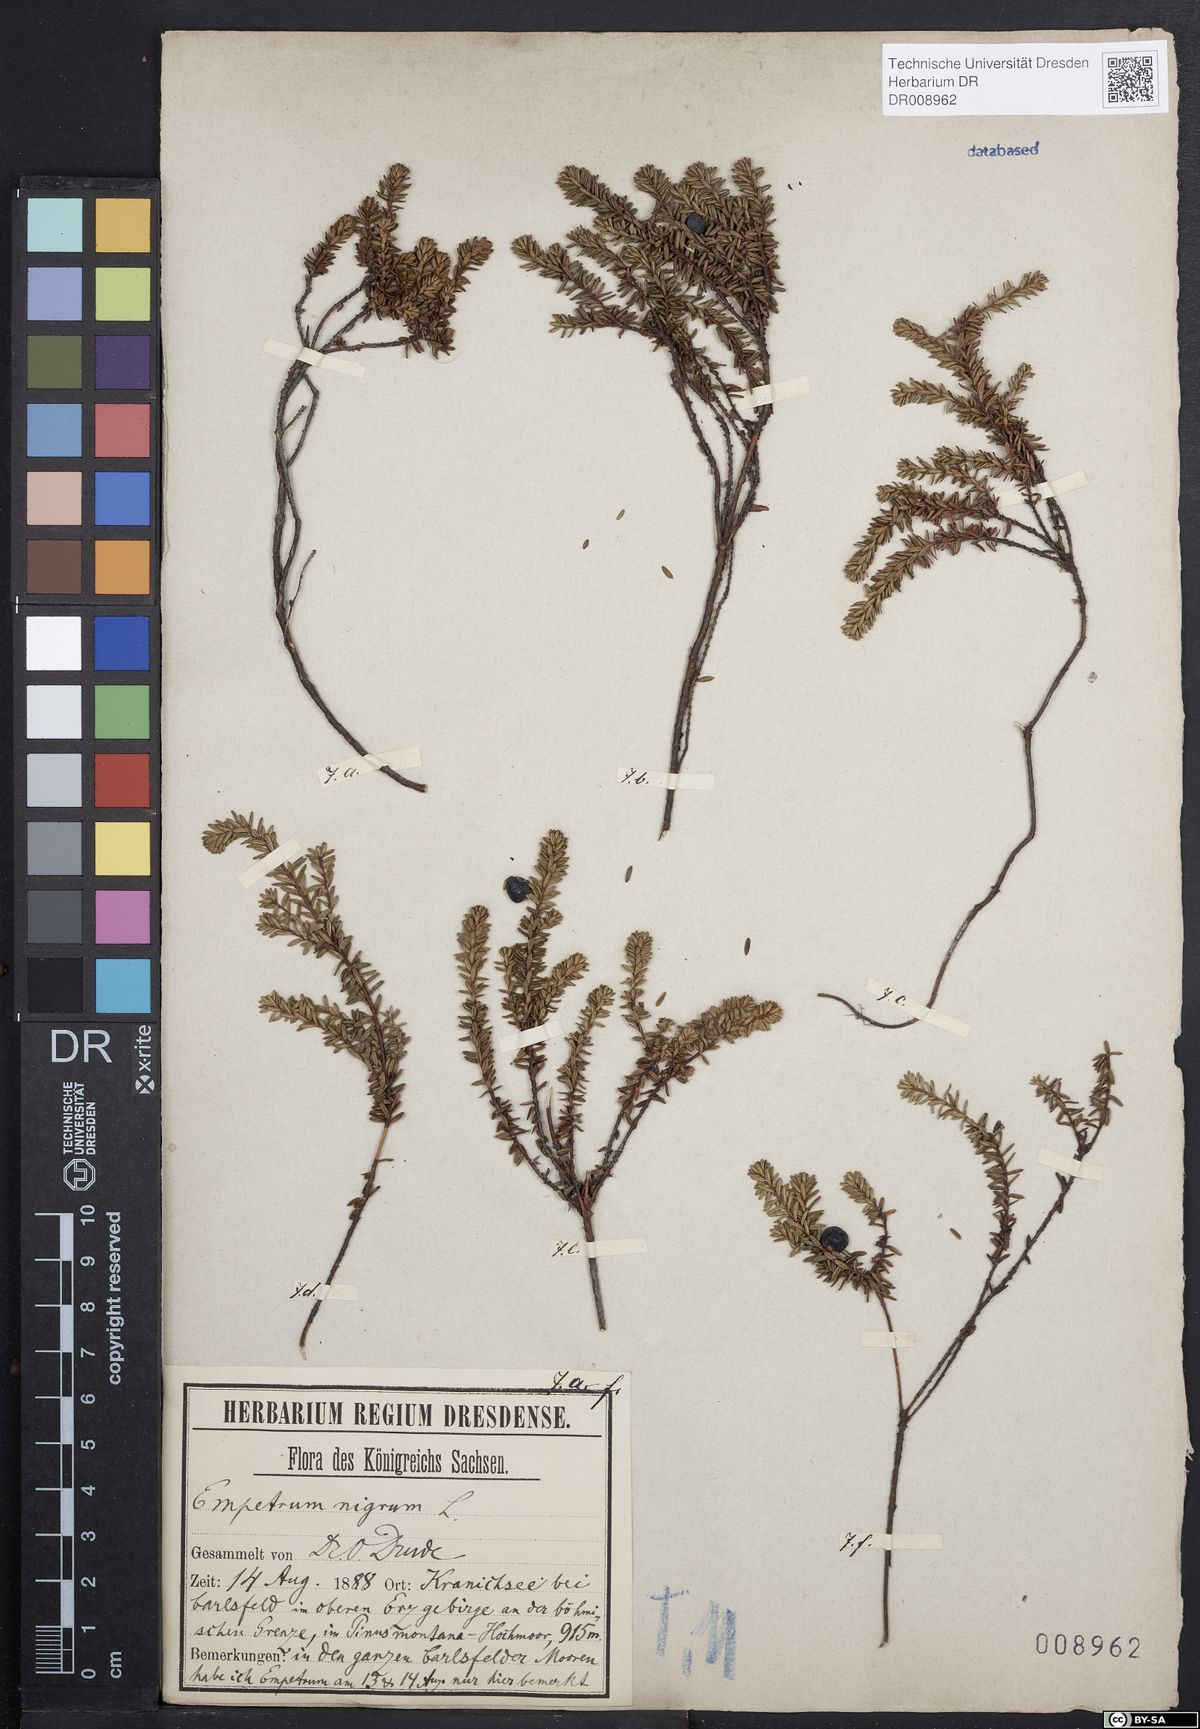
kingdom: Plantae
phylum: Tracheophyta
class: Magnoliopsida
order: Ericales
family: Ericaceae
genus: Empetrum
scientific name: Empetrum nigrum
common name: Black crowberry
